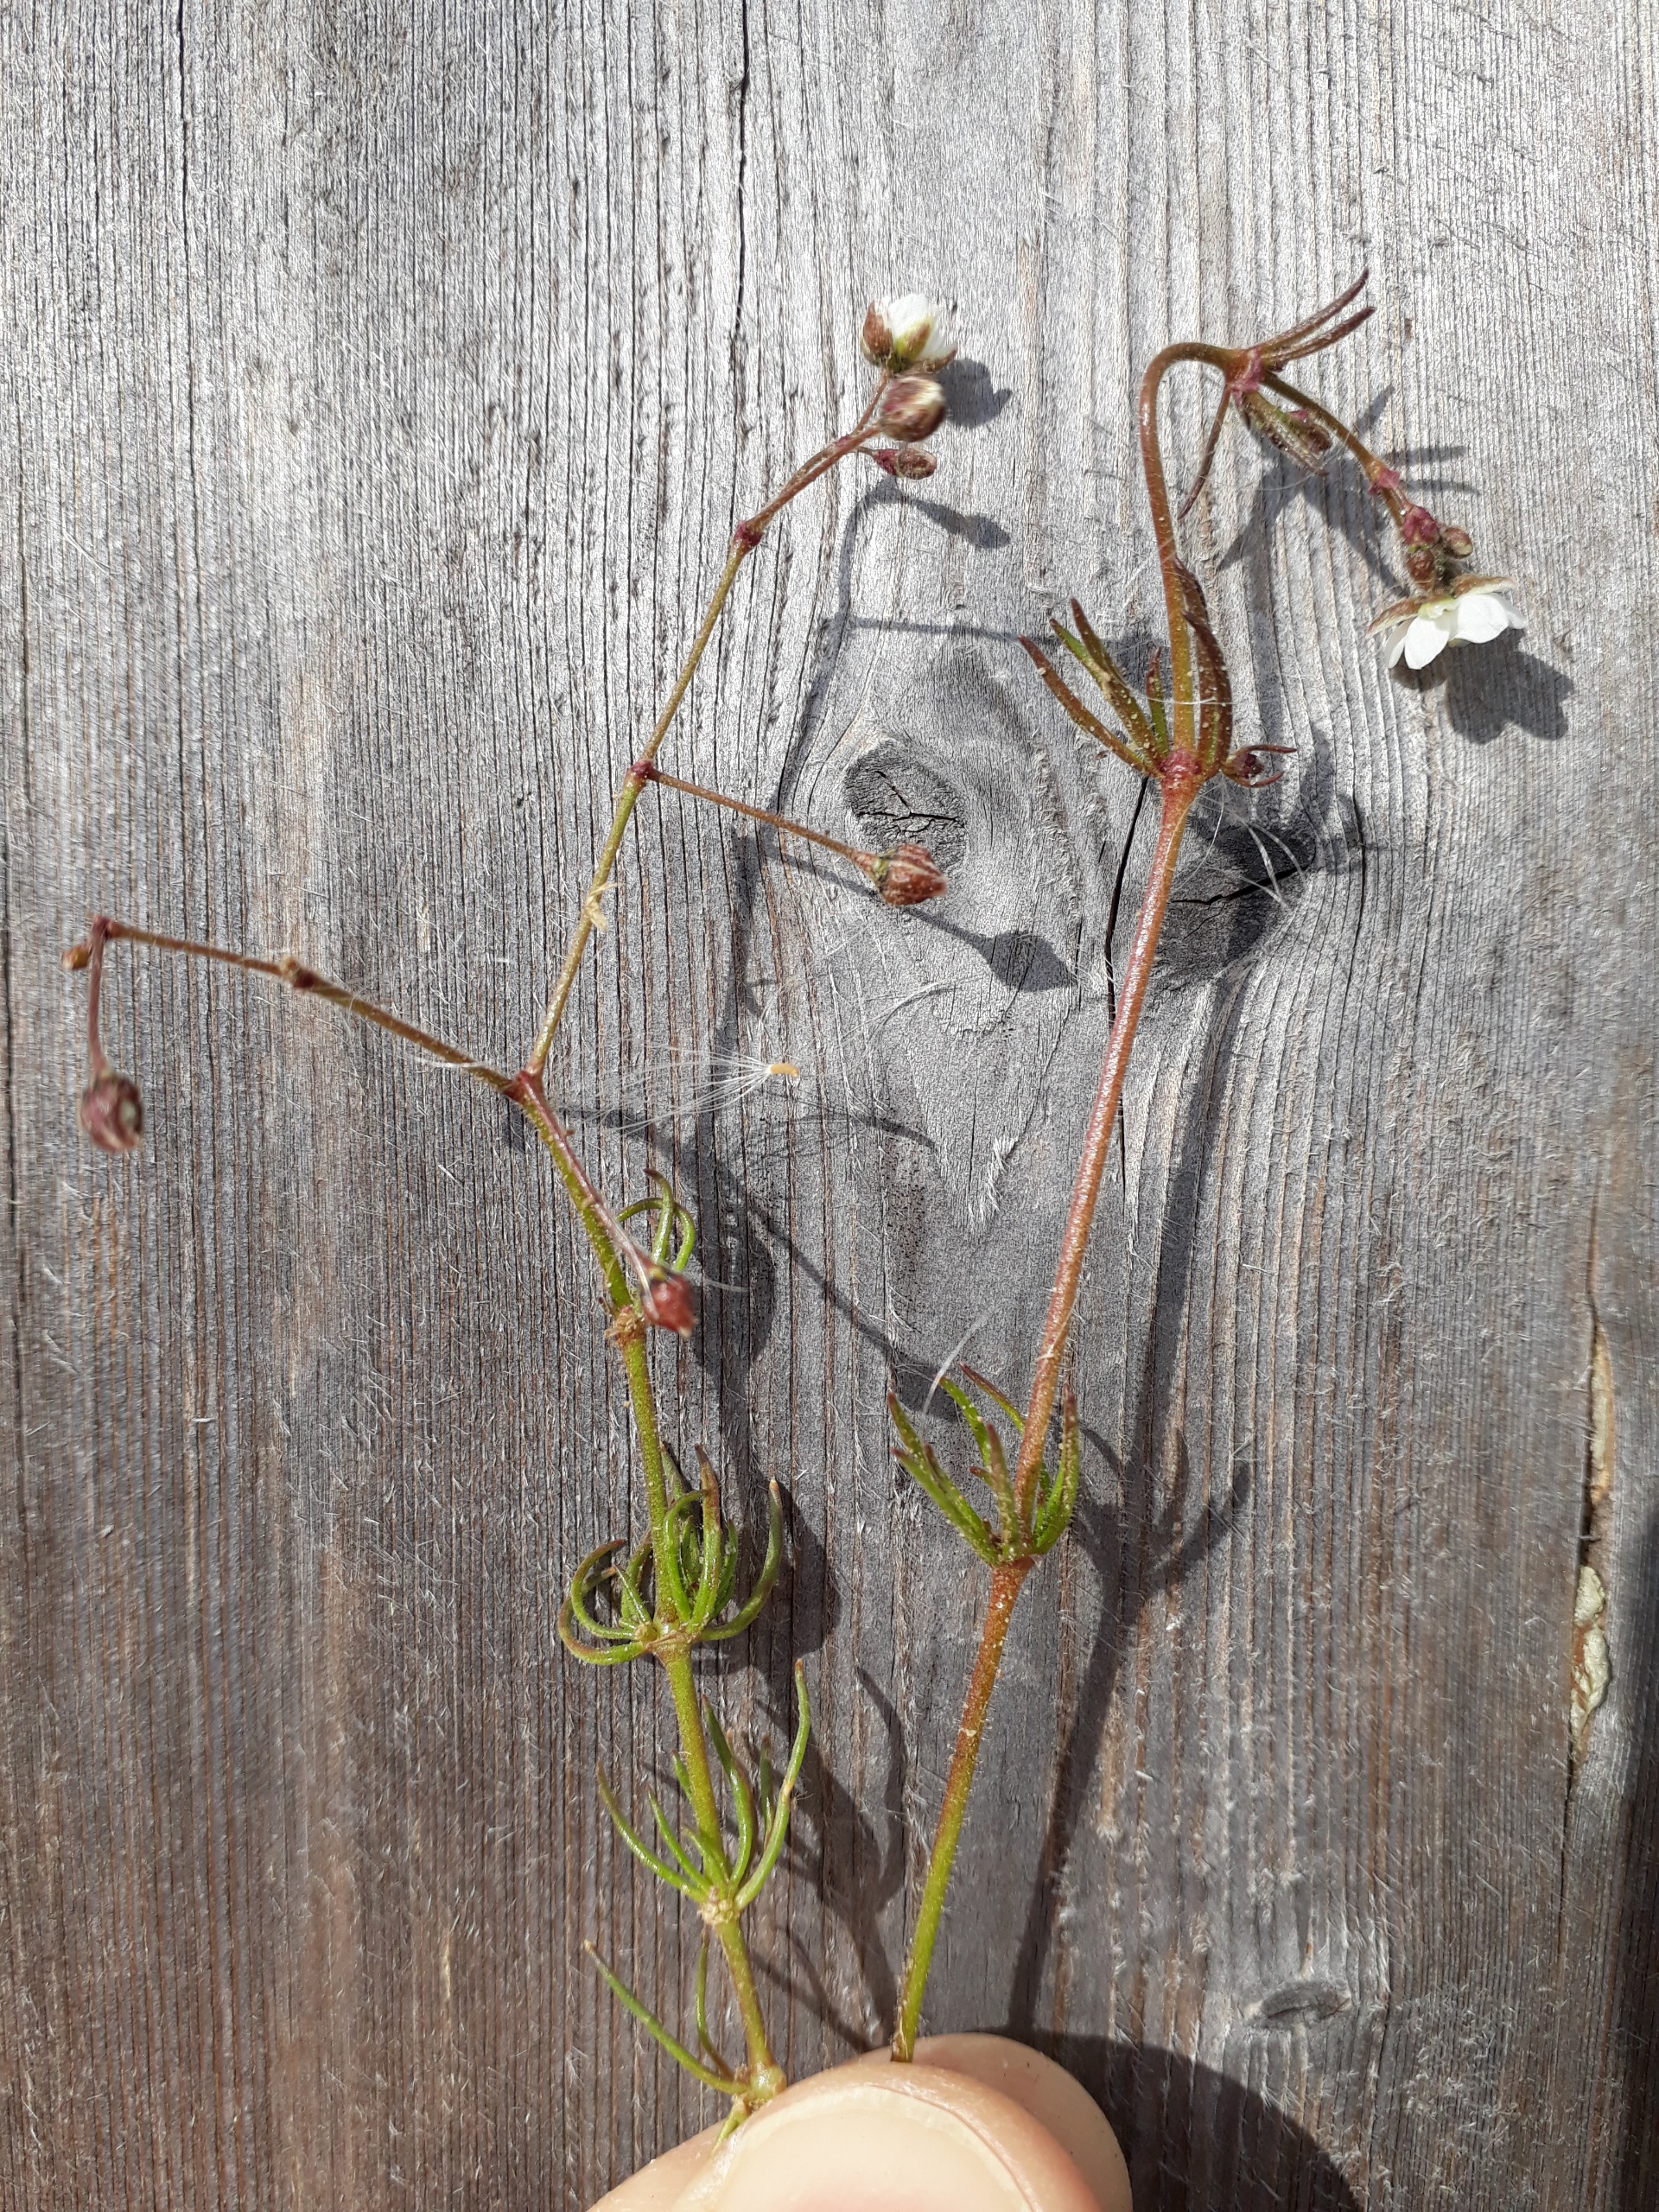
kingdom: Plantae
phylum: Tracheophyta
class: Magnoliopsida
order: Caryophyllales
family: Caryophyllaceae
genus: Spergula
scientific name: Spergula arvensis
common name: Almindelig spergel (underart)
